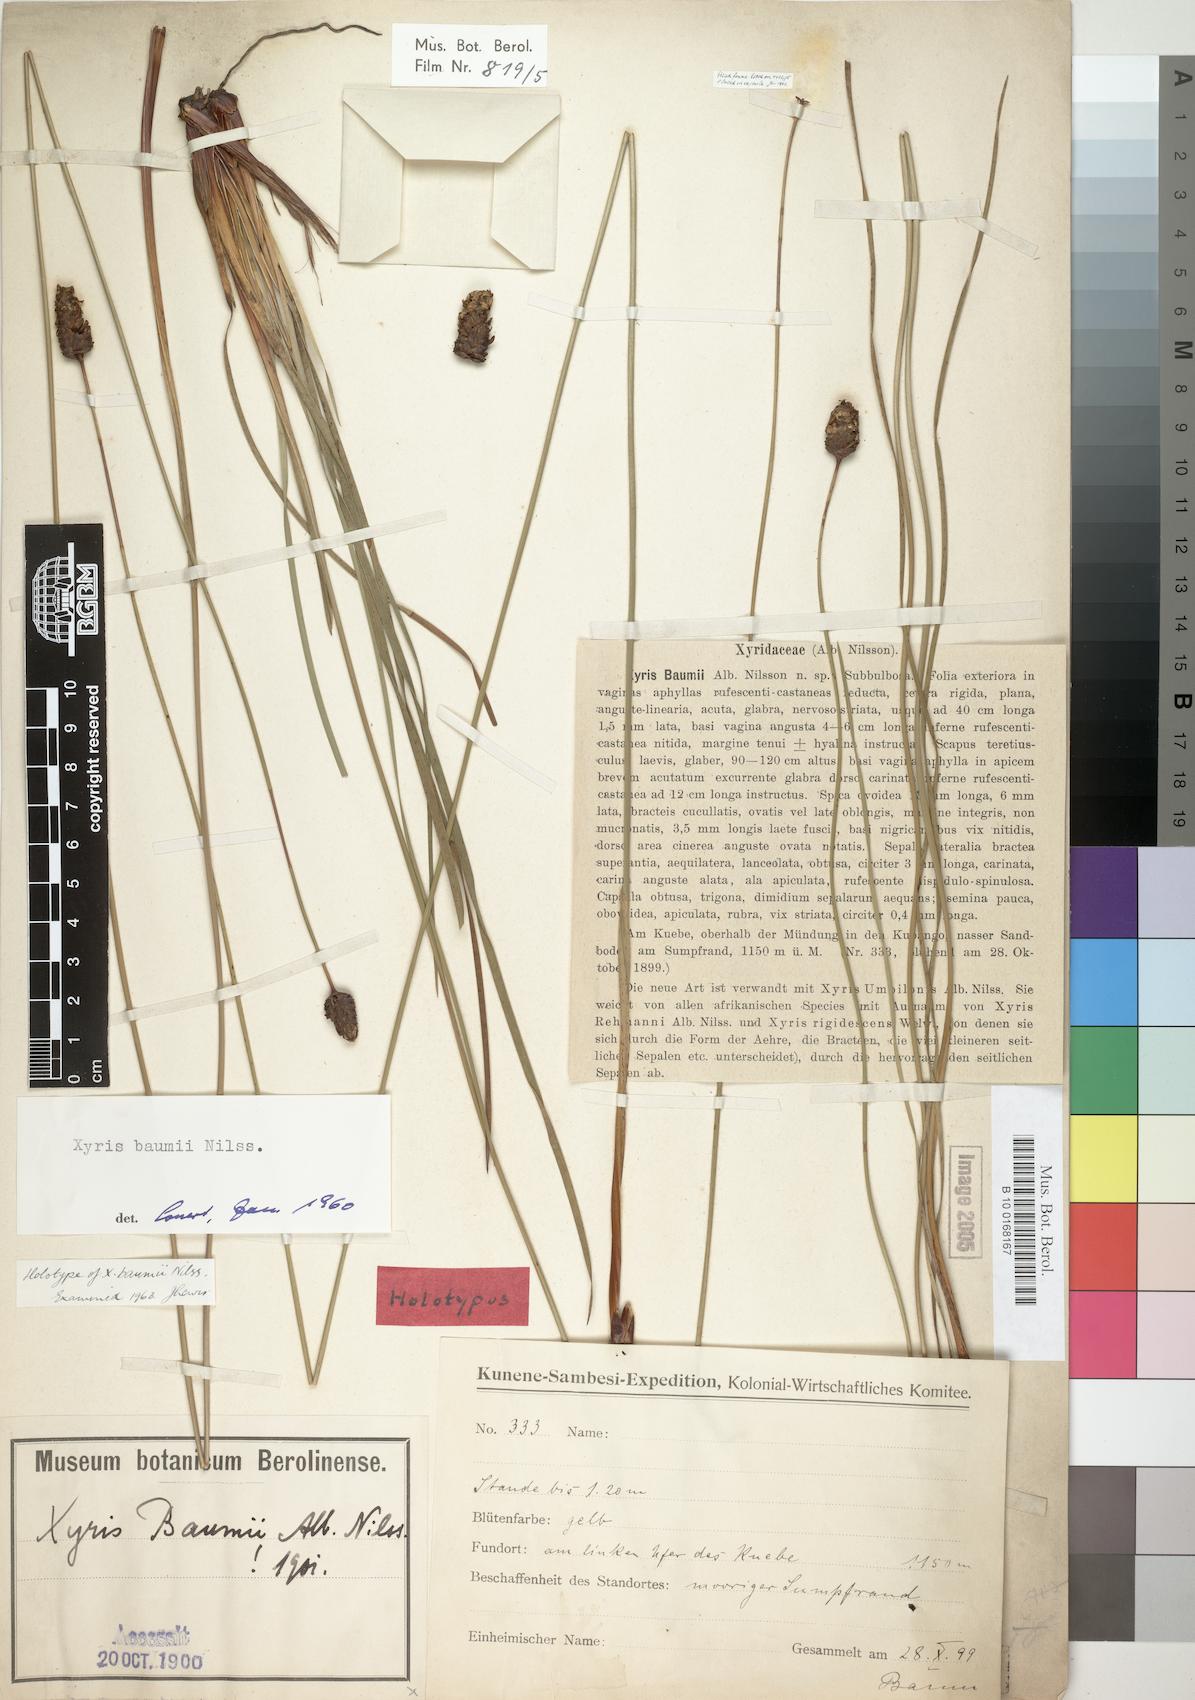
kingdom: Plantae
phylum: Tracheophyta
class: Liliopsida
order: Poales
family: Xyridaceae
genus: Xyris
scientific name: Xyris congensis
